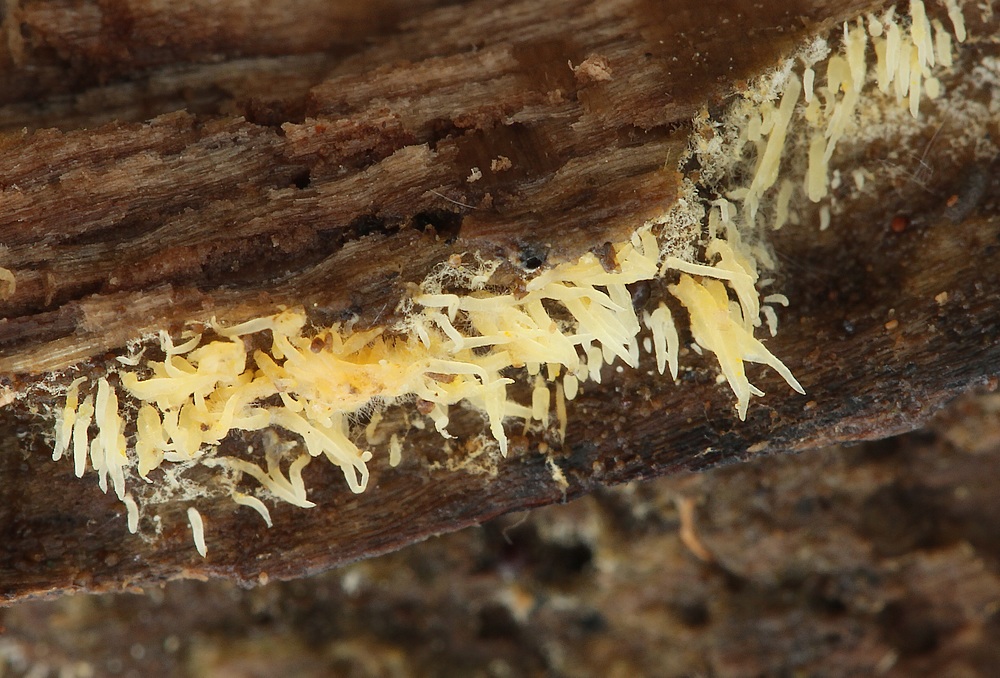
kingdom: Fungi
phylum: Basidiomycota
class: Agaricomycetes
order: Agaricales
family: Clavariaceae
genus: Mucronella
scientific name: Mucronella calva
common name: hvid hængepig
